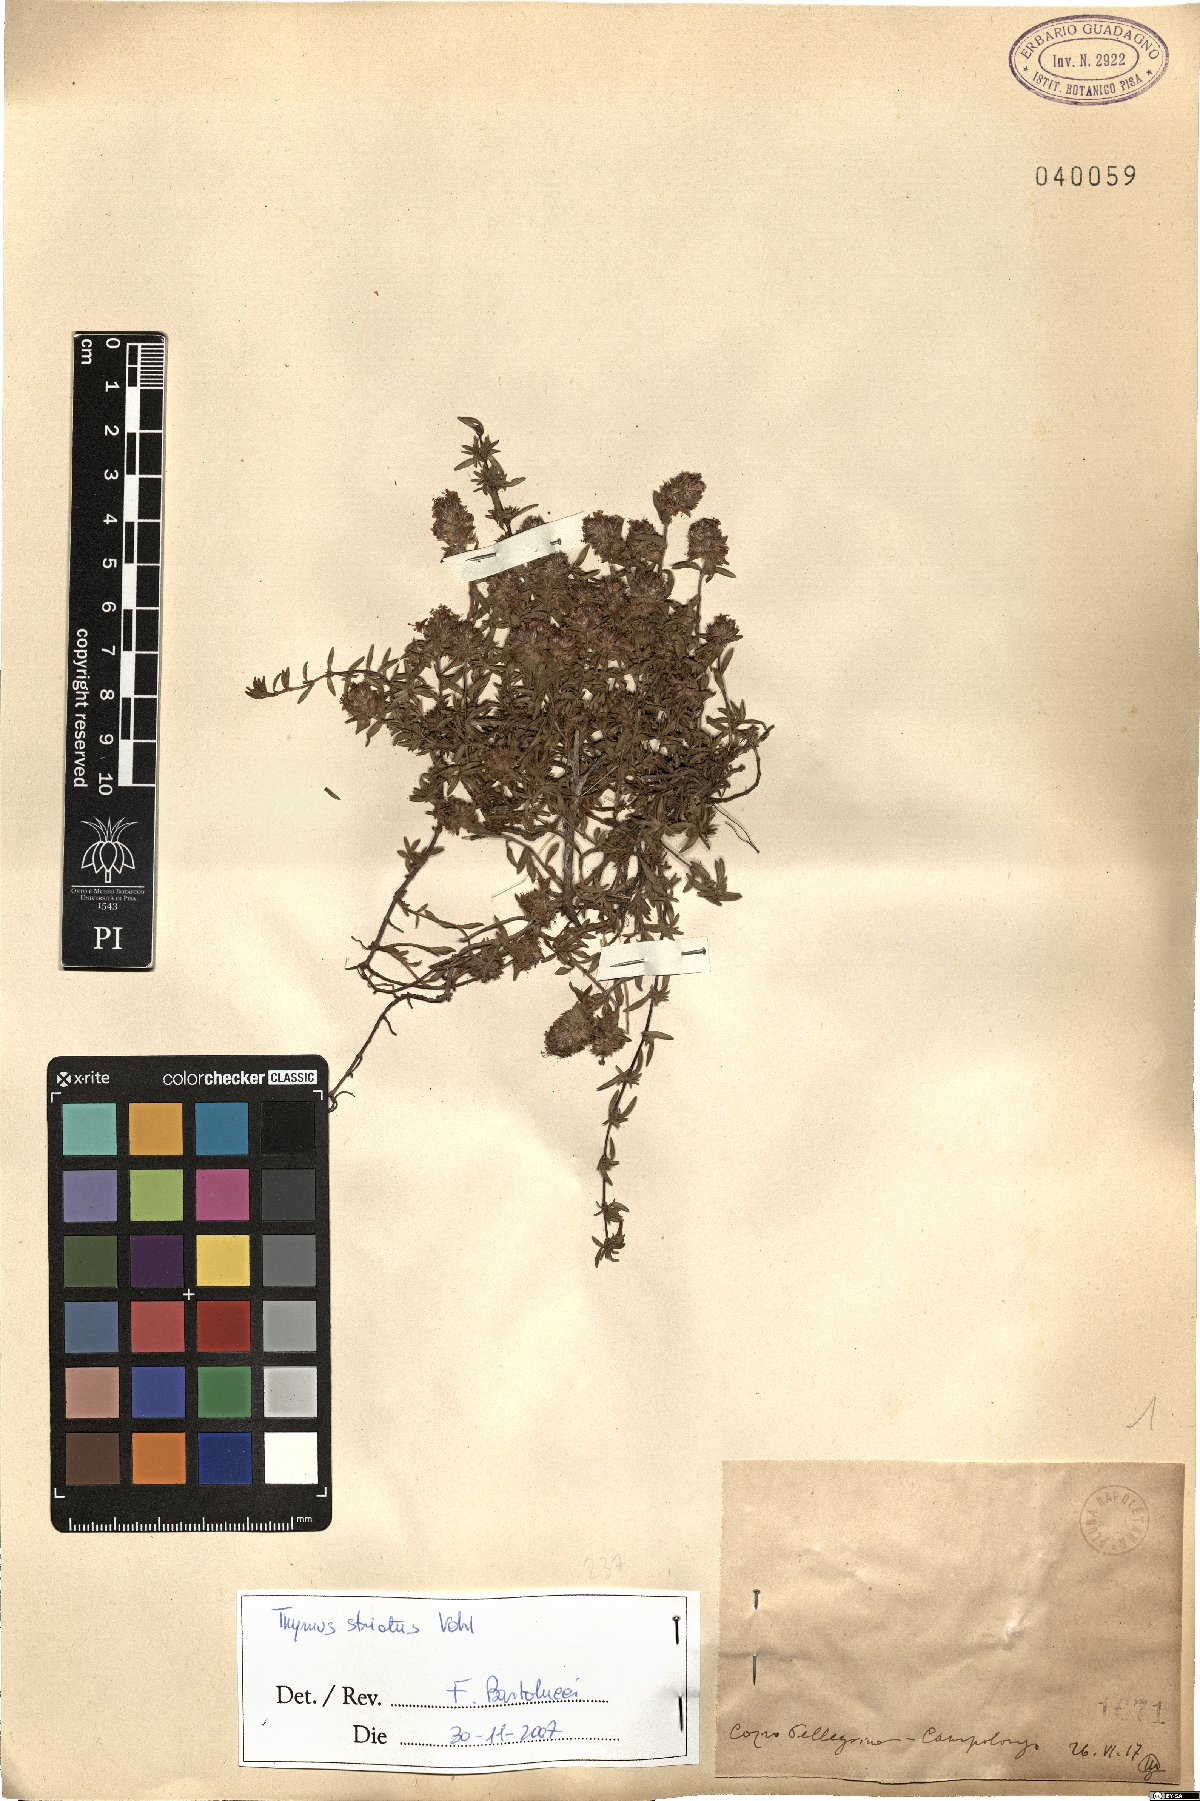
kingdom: Plantae
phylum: Tracheophyta
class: Magnoliopsida
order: Lamiales
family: Lamiaceae
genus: Thymus
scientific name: Thymus striatus
